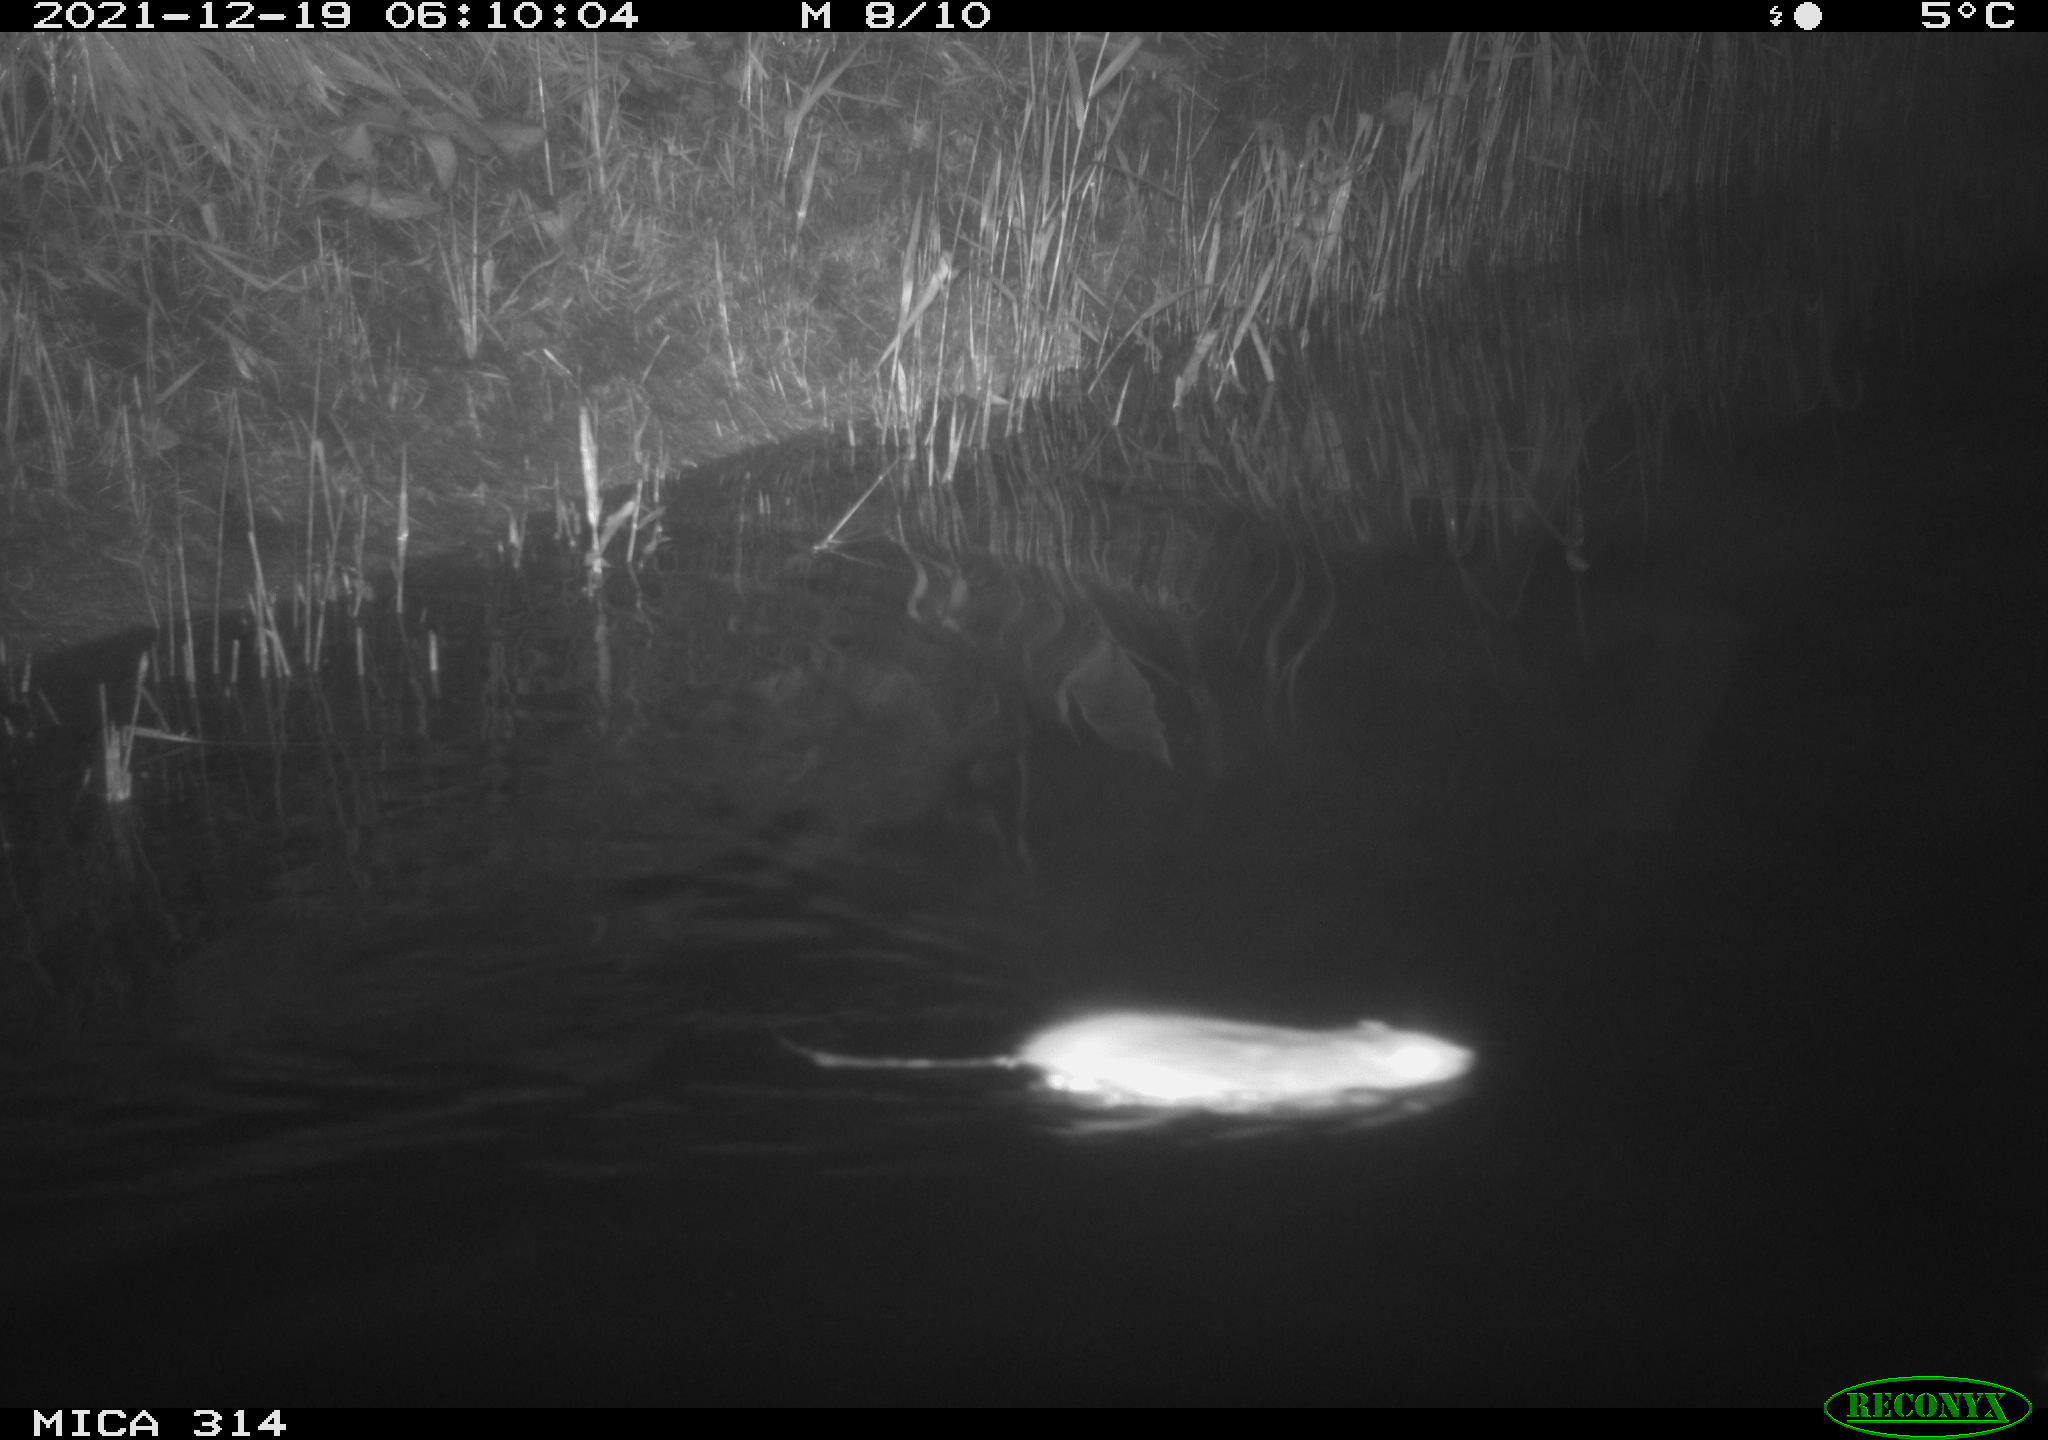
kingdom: Animalia
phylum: Chordata
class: Mammalia
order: Rodentia
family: Muridae
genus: Rattus
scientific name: Rattus norvegicus
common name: Brown rat
